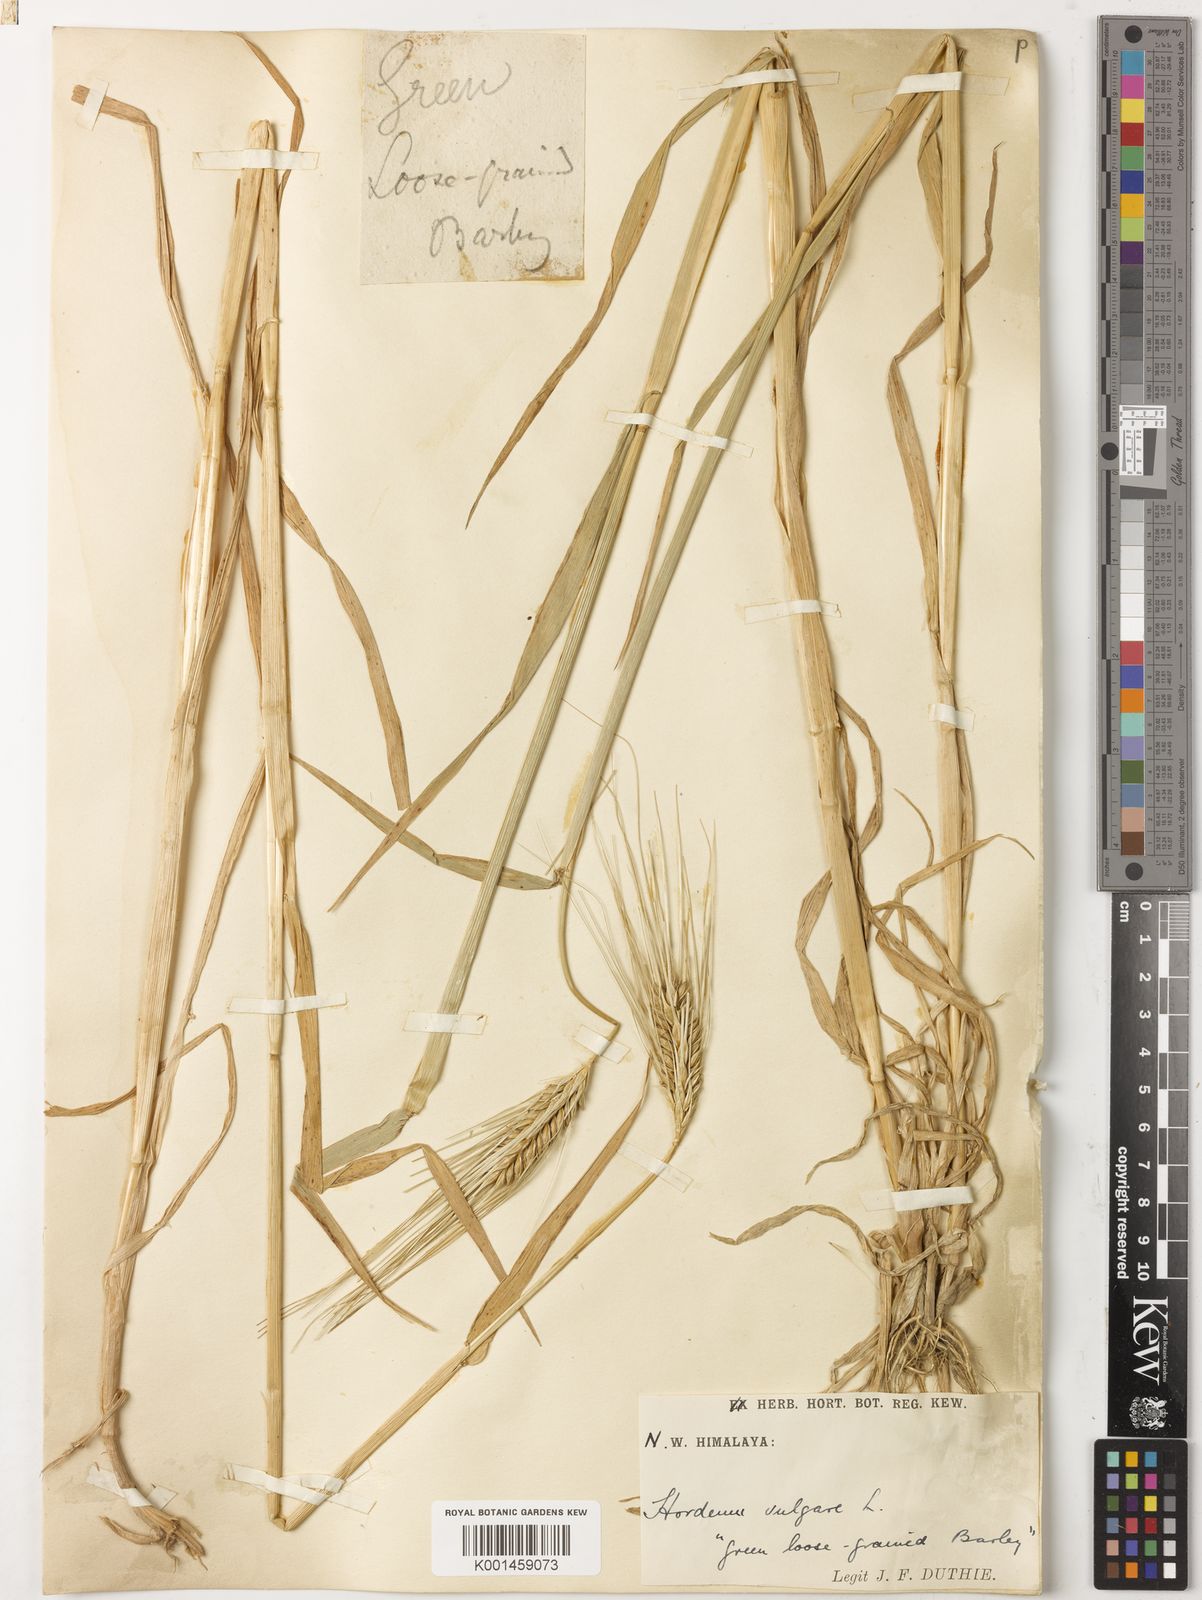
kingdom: Plantae
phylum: Tracheophyta
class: Liliopsida
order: Poales
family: Poaceae
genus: Hordeum
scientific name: Hordeum vulgare
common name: Common barley
